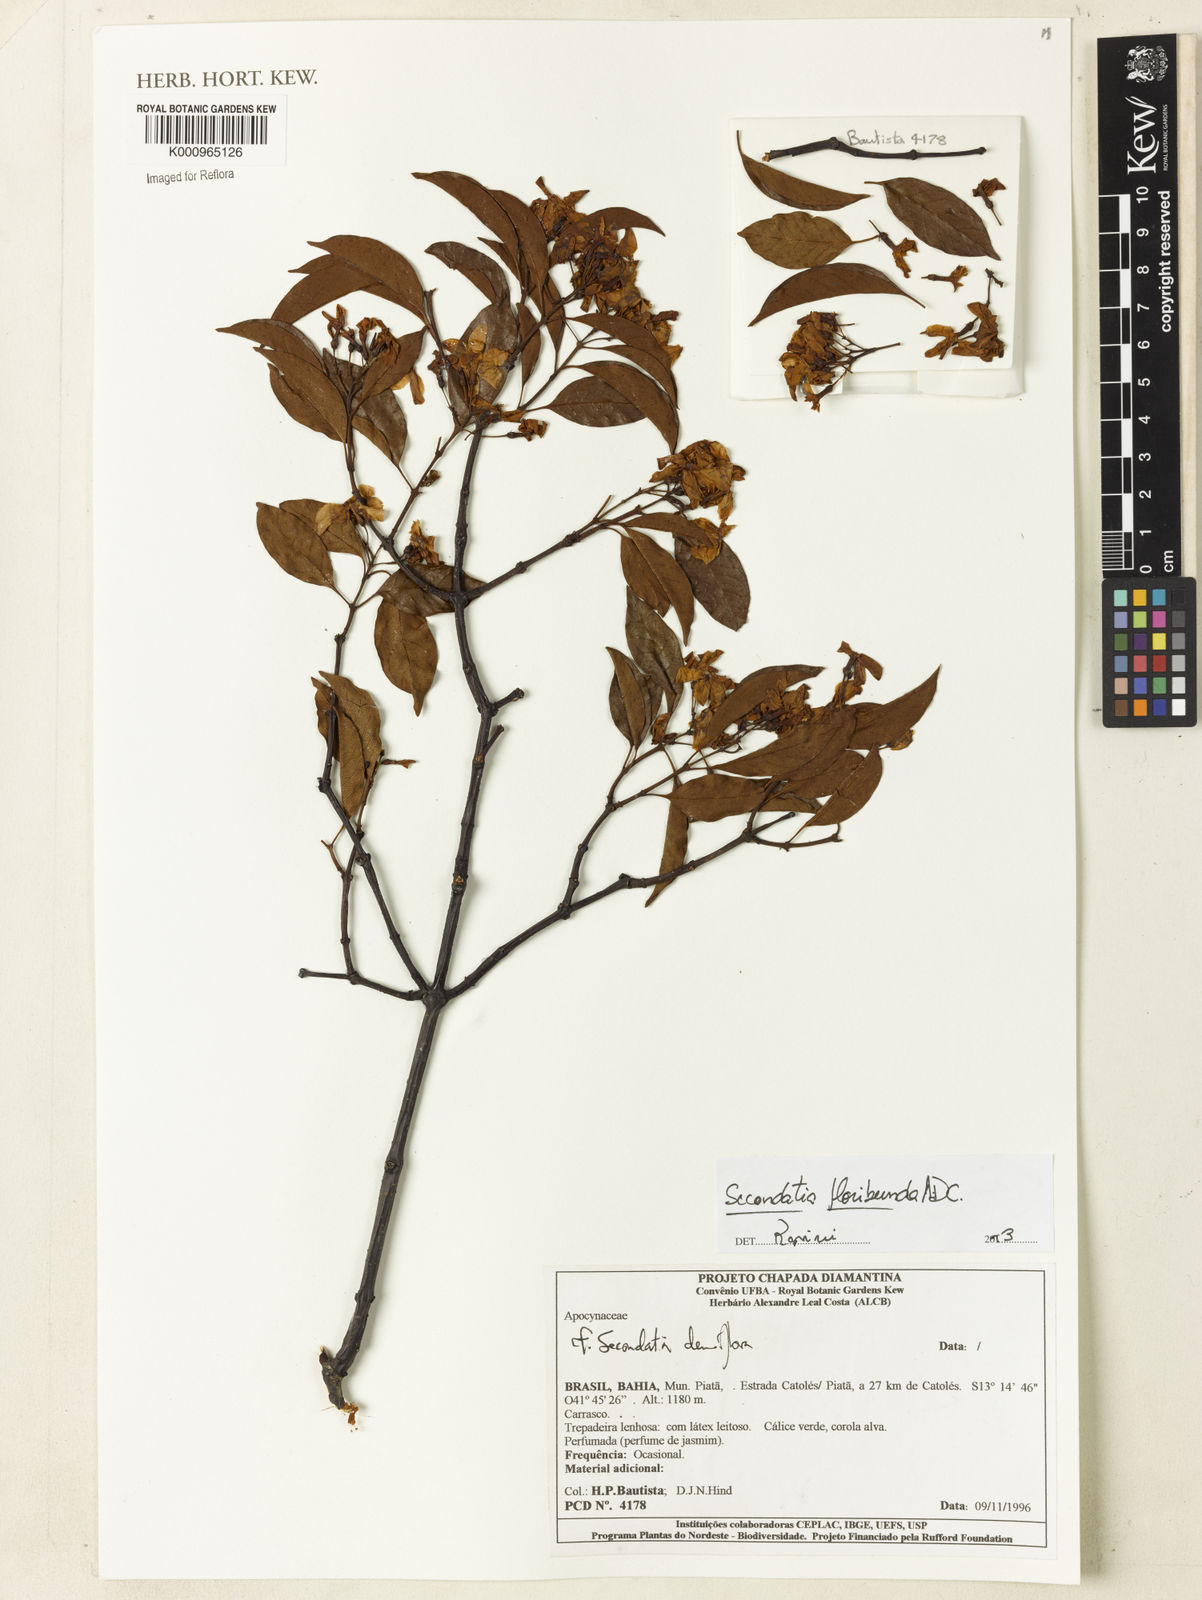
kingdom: Plantae
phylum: Tracheophyta
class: Magnoliopsida
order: Gentianales
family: Apocynaceae
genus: Secondatia
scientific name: Secondatia floribunda
